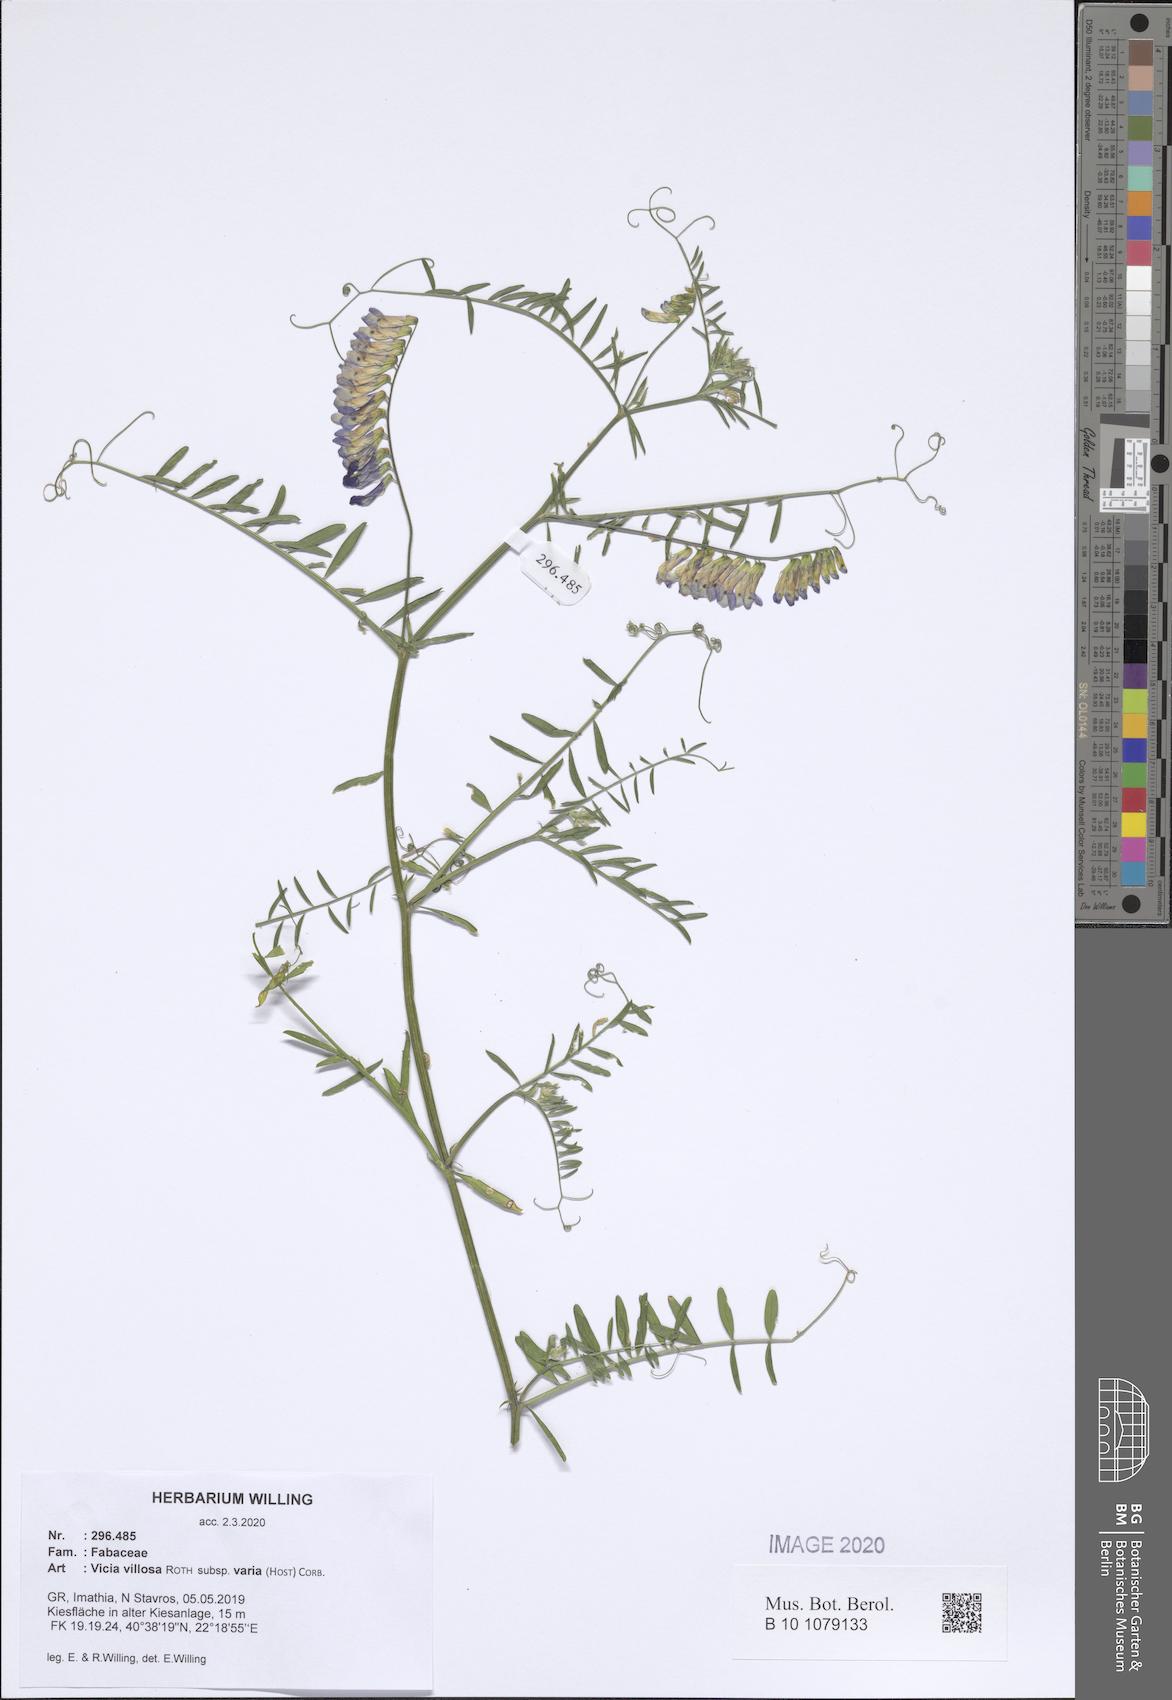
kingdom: Plantae
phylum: Tracheophyta
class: Magnoliopsida
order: Fabales
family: Fabaceae
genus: Vicia
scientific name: Vicia villosa
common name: Fodder vetch
